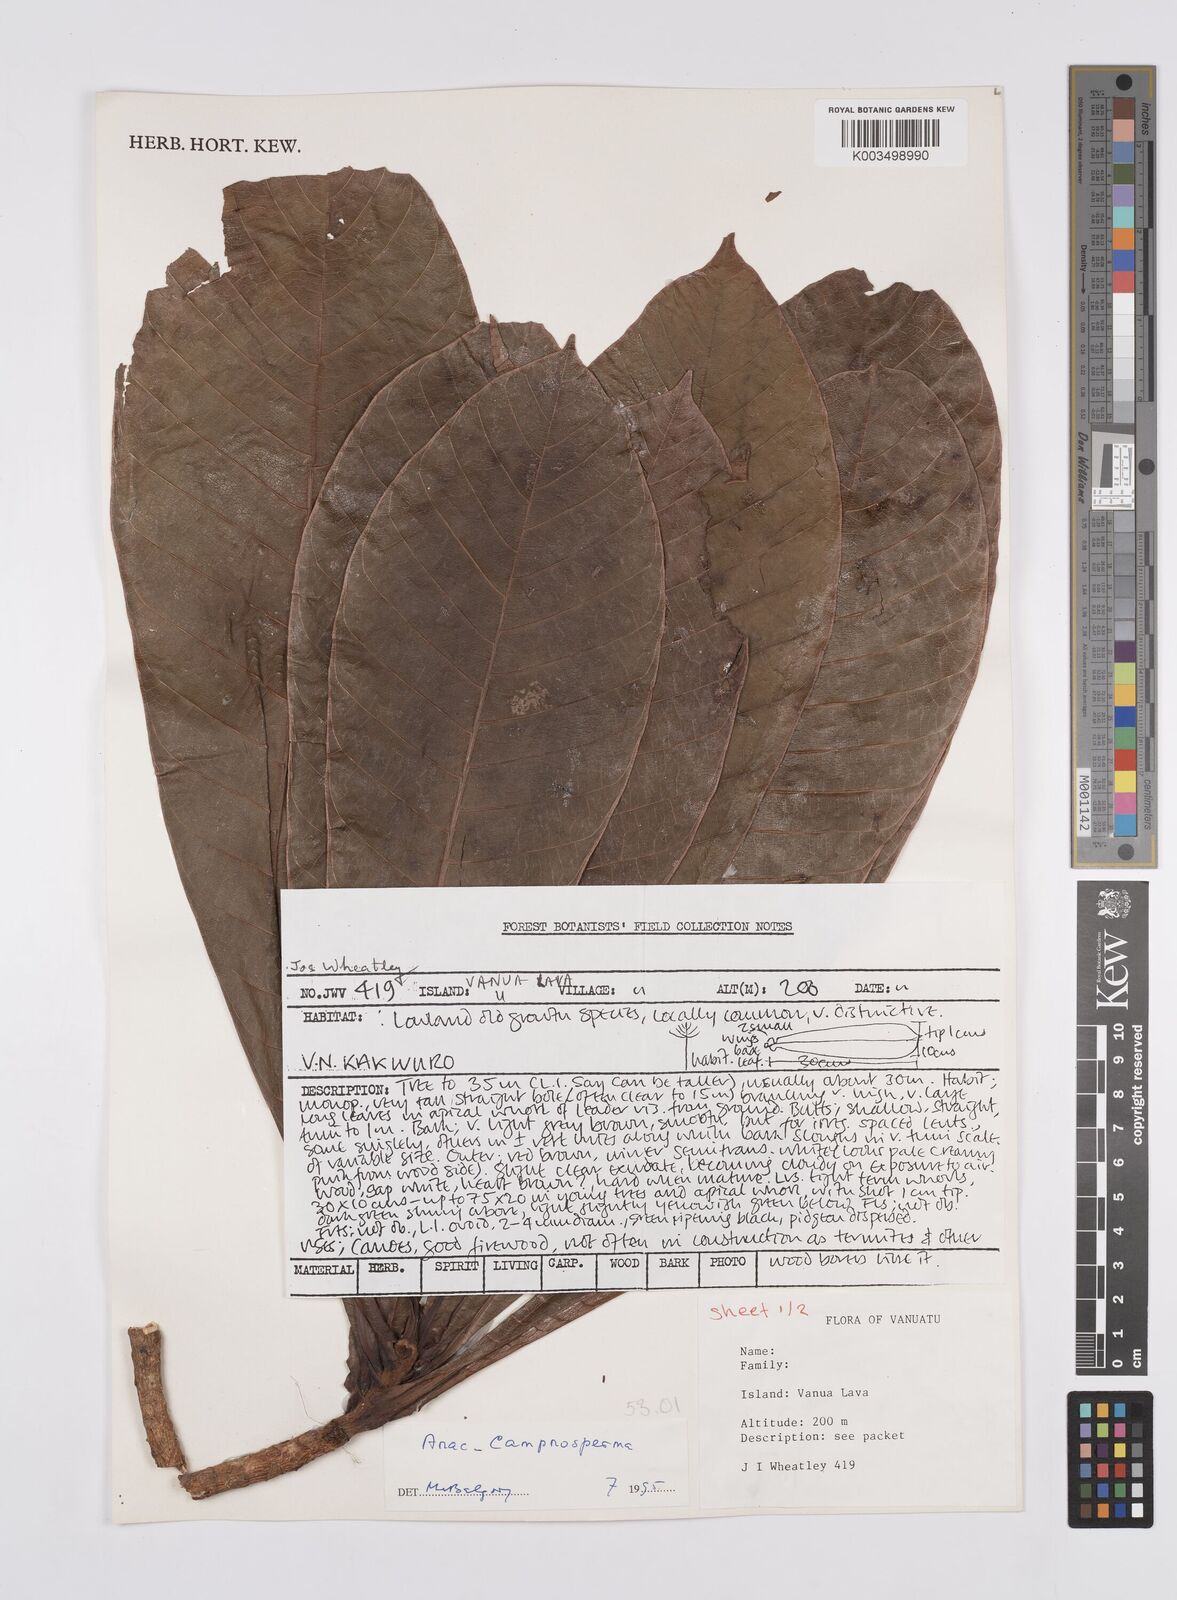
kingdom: Plantae
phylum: Tracheophyta
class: Magnoliopsida
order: Sapindales
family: Anacardiaceae
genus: Campnosperma
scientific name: Campnosperma
